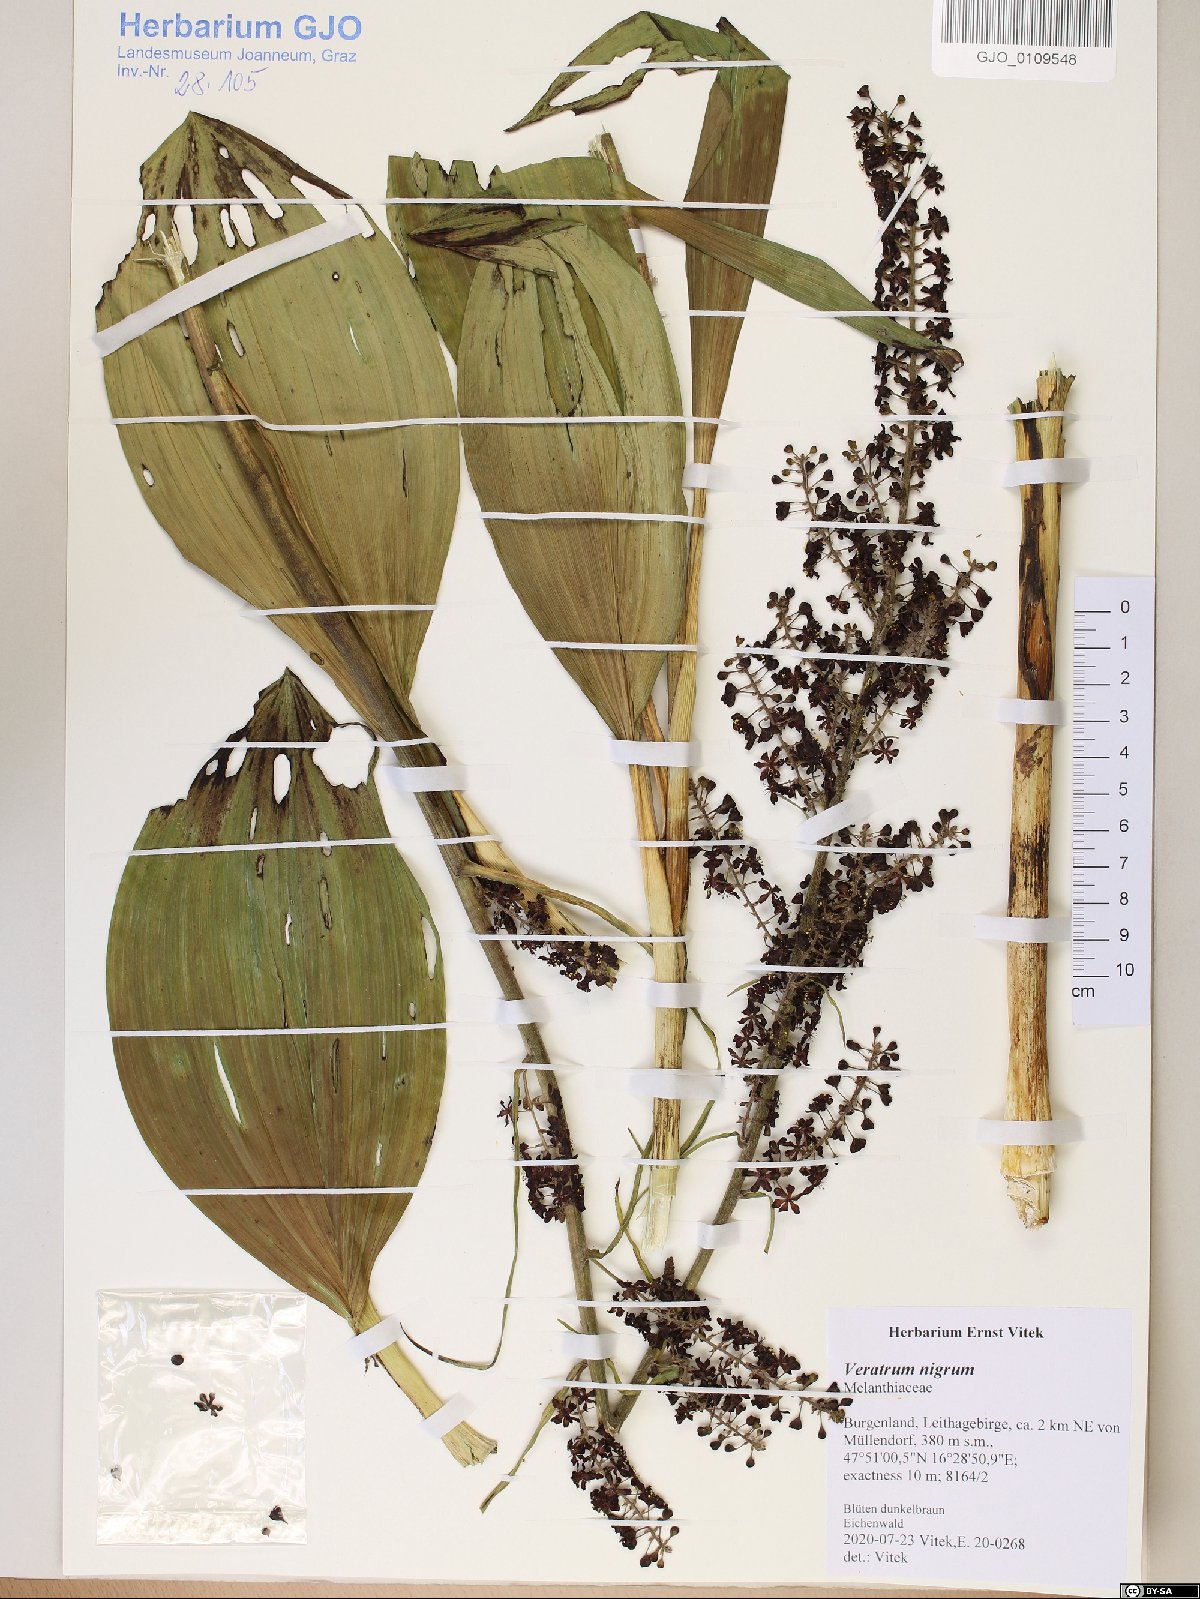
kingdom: Plantae
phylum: Tracheophyta
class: Liliopsida
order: Liliales
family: Melanthiaceae
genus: Veratrum
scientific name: Veratrum nigrum
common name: Black veratrum
